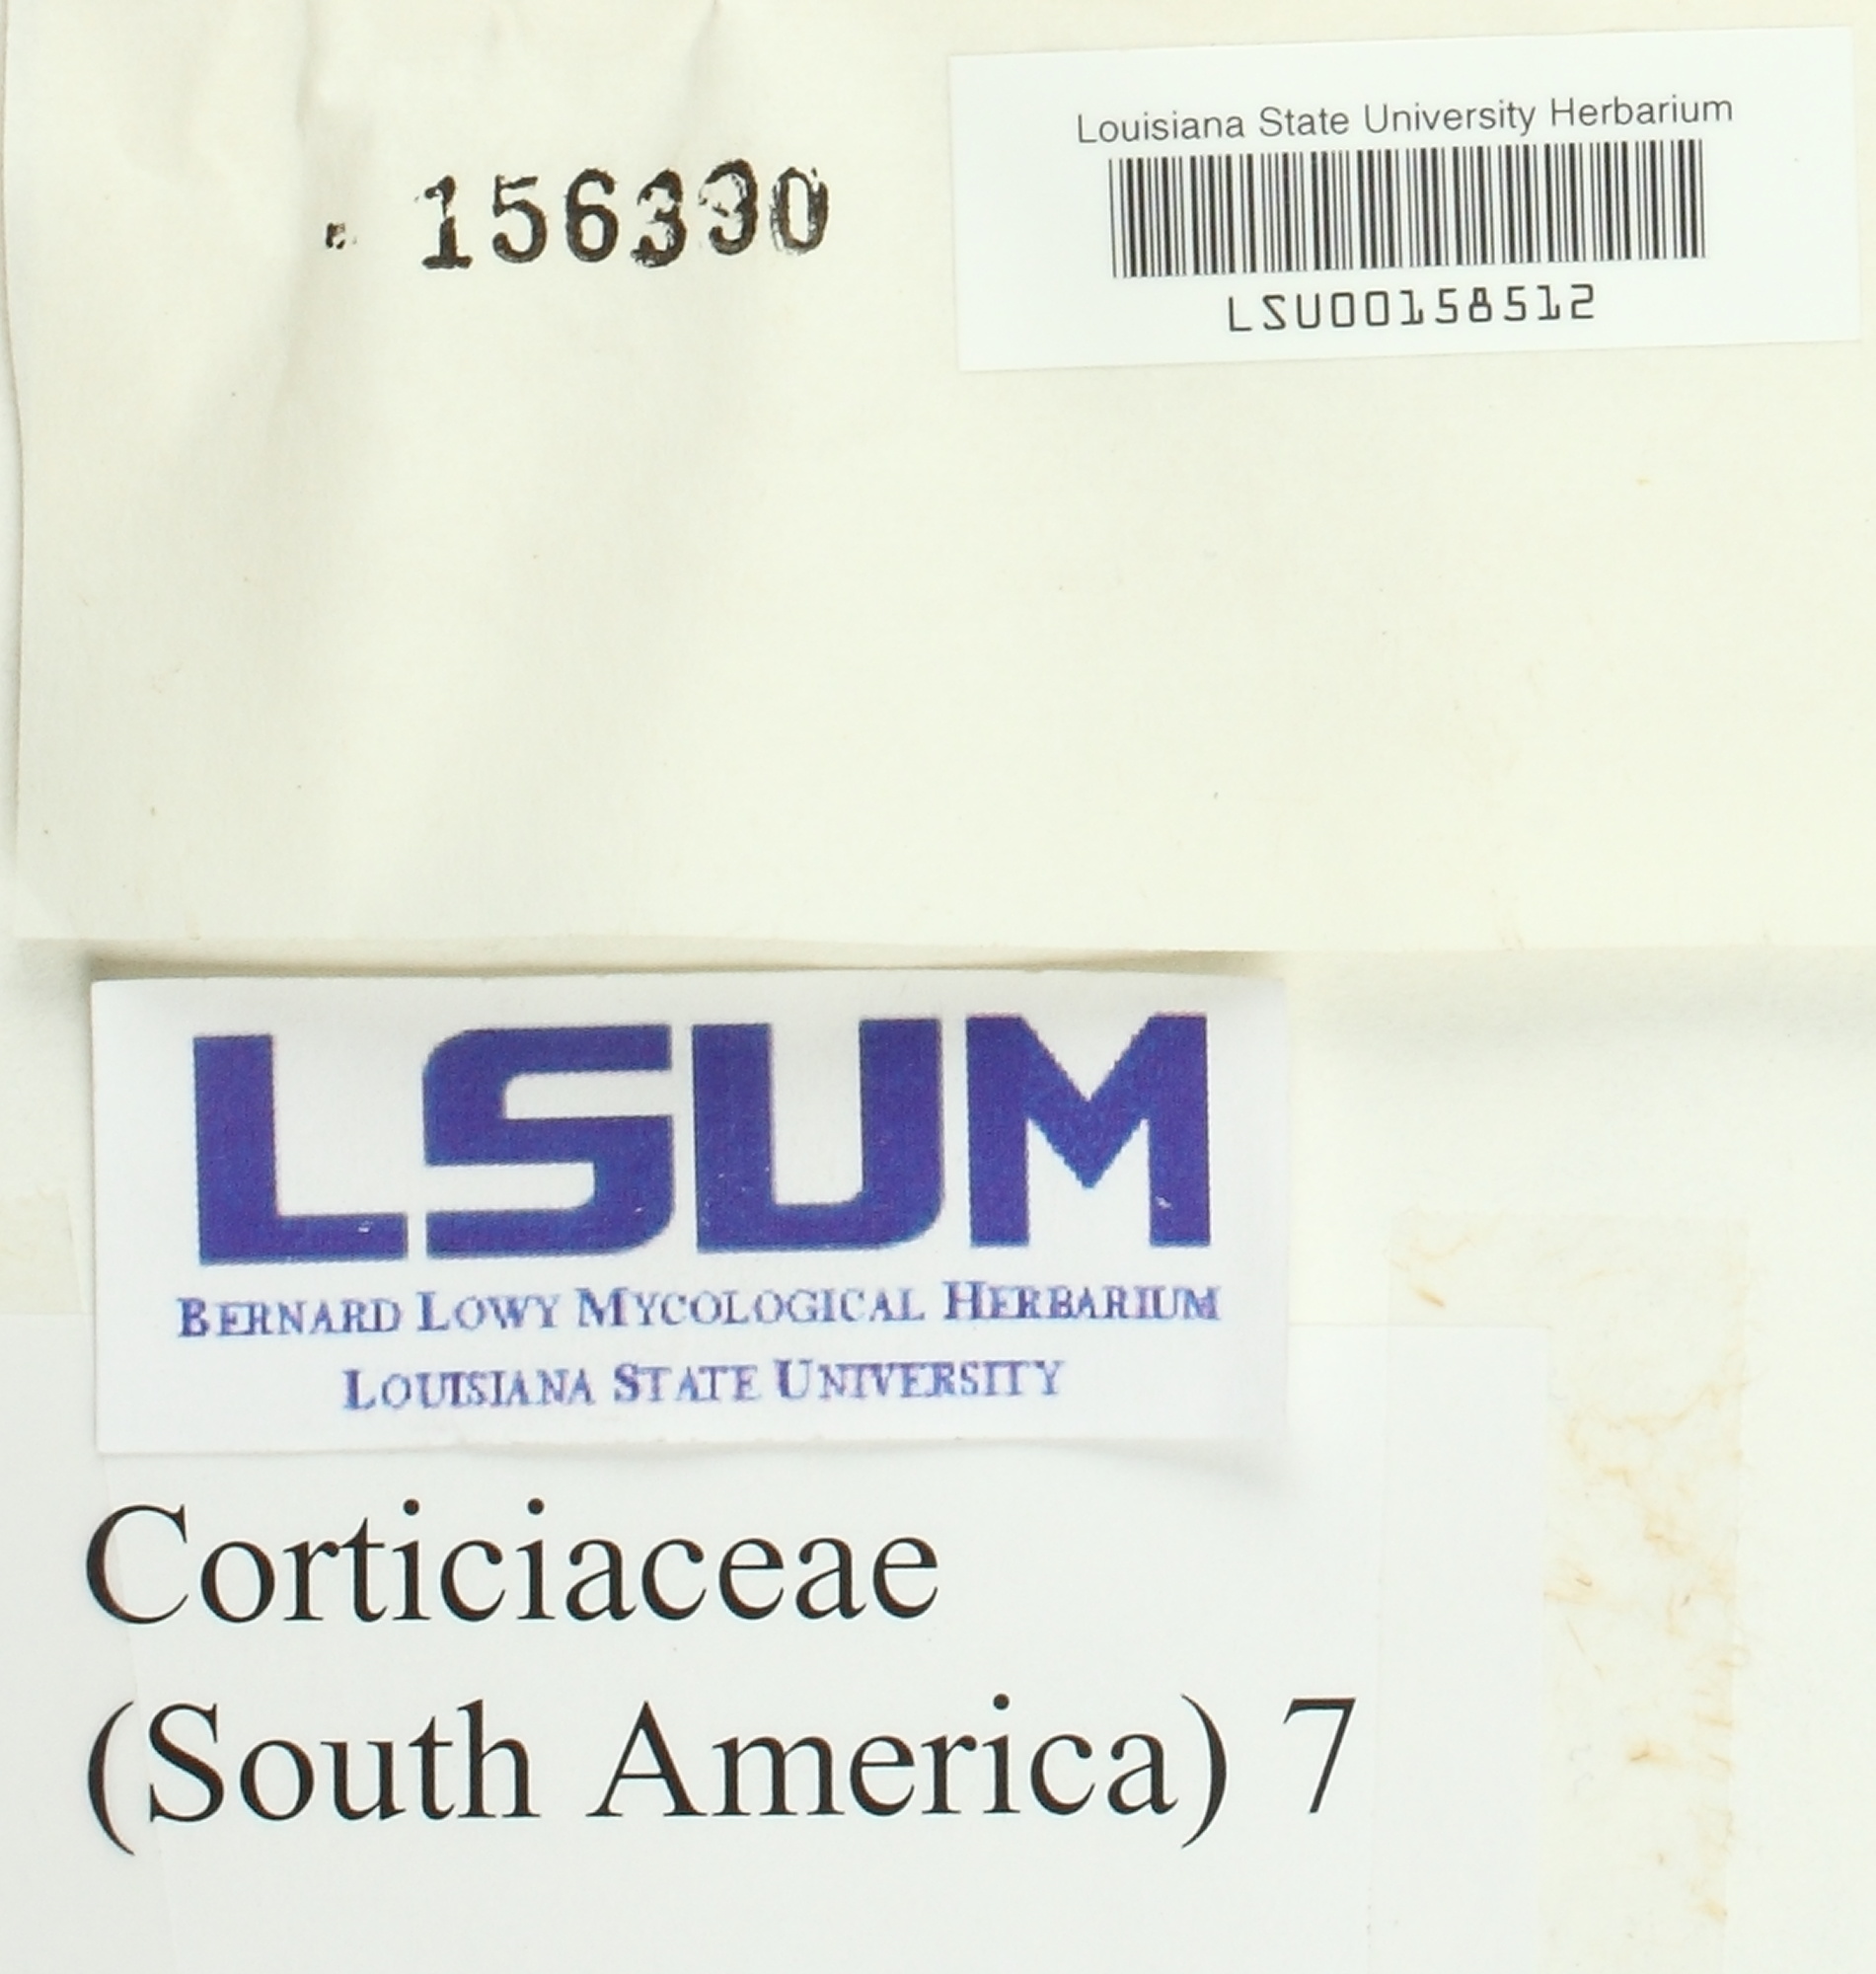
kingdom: Fungi
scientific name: Fungi
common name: Fungi
